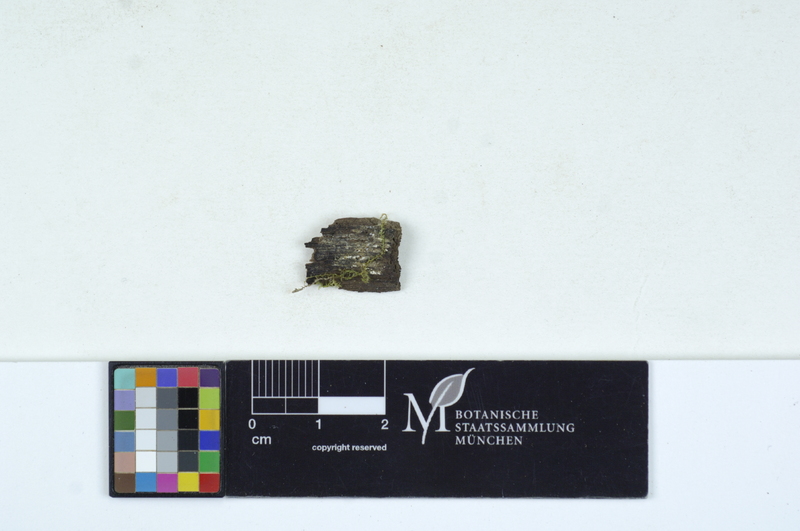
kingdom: Fungi
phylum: Basidiomycota
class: Agaricomycetes
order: Auriculariales
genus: Stypella
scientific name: Stypella grilletii
